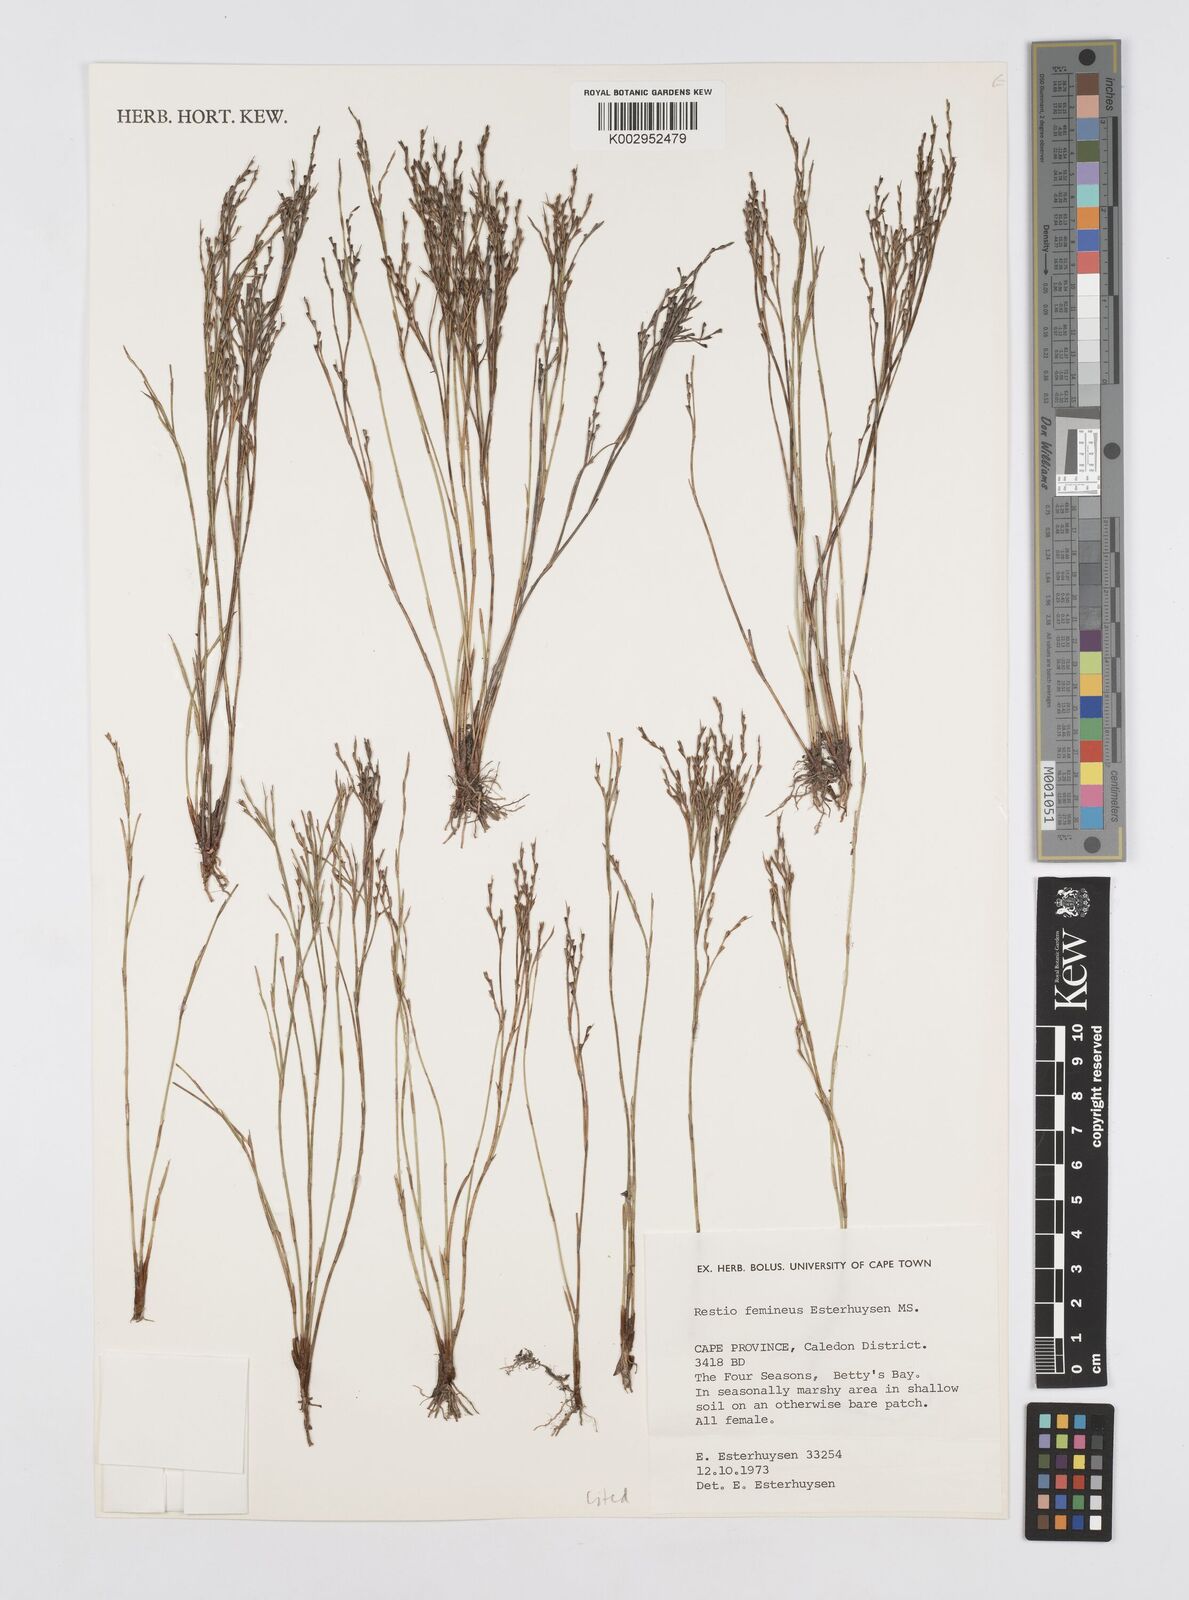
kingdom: Plantae
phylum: Tracheophyta
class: Liliopsida
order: Poales
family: Restionaceae
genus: Restio
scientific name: Restio femineus
